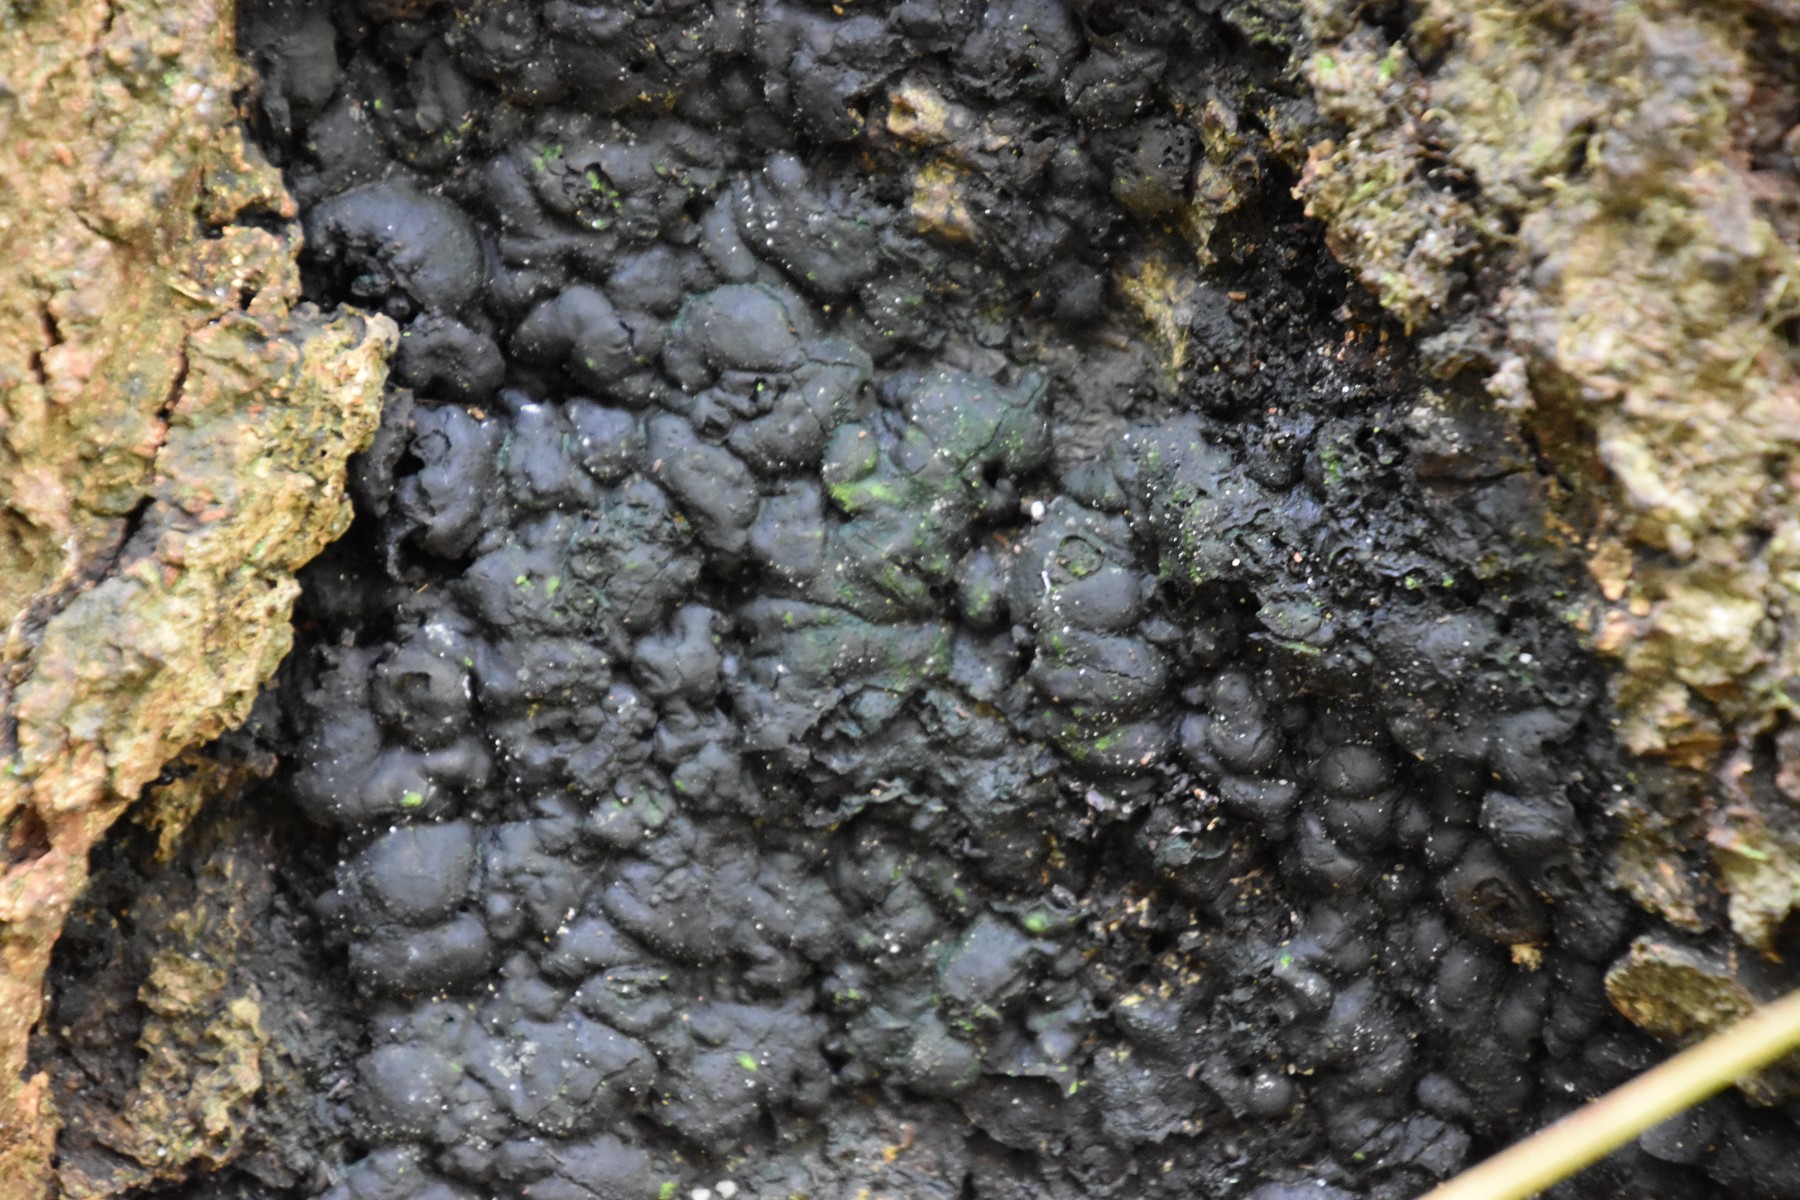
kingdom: Fungi
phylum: Ascomycota
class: Sordariomycetes
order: Xylariales
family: Xylariaceae
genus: Kretzschmaria
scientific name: Kretzschmaria deusta
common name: stor kulsvamp
